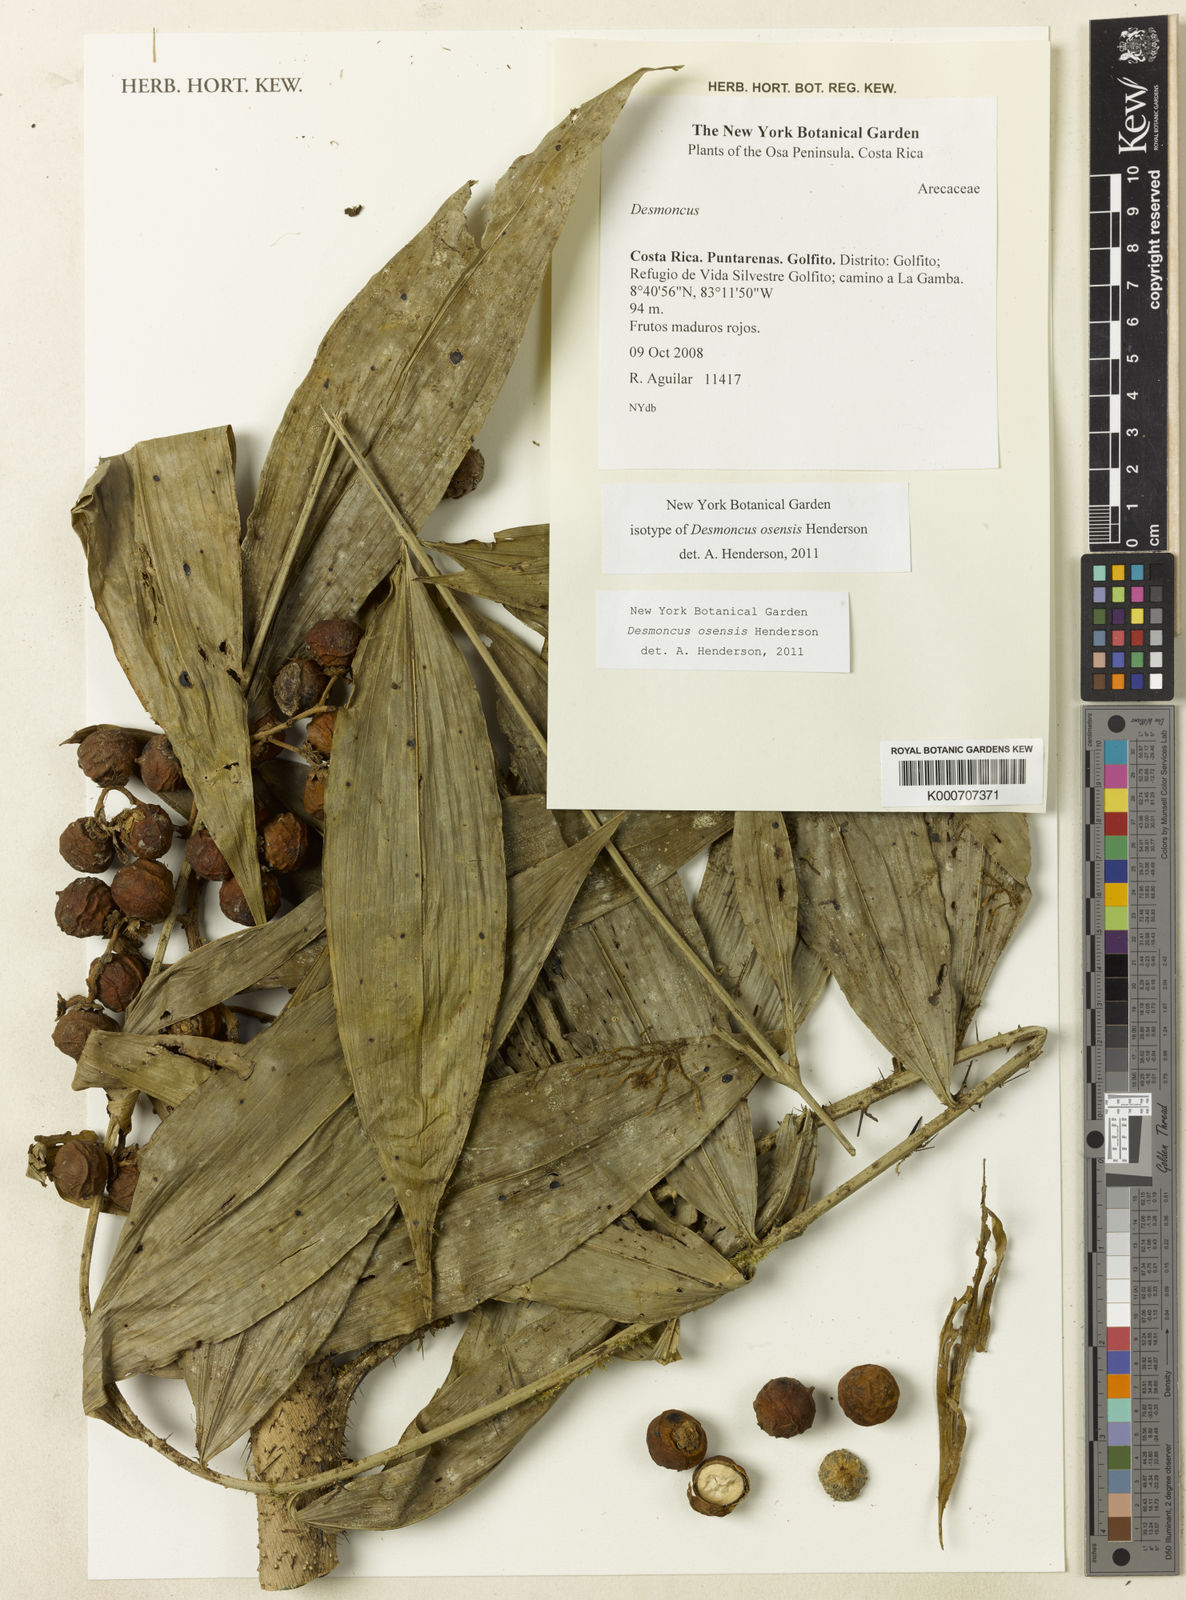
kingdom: Plantae
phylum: Tracheophyta
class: Liliopsida
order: Arecales
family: Arecaceae
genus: Desmoncus
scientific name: Desmoncus osensis
